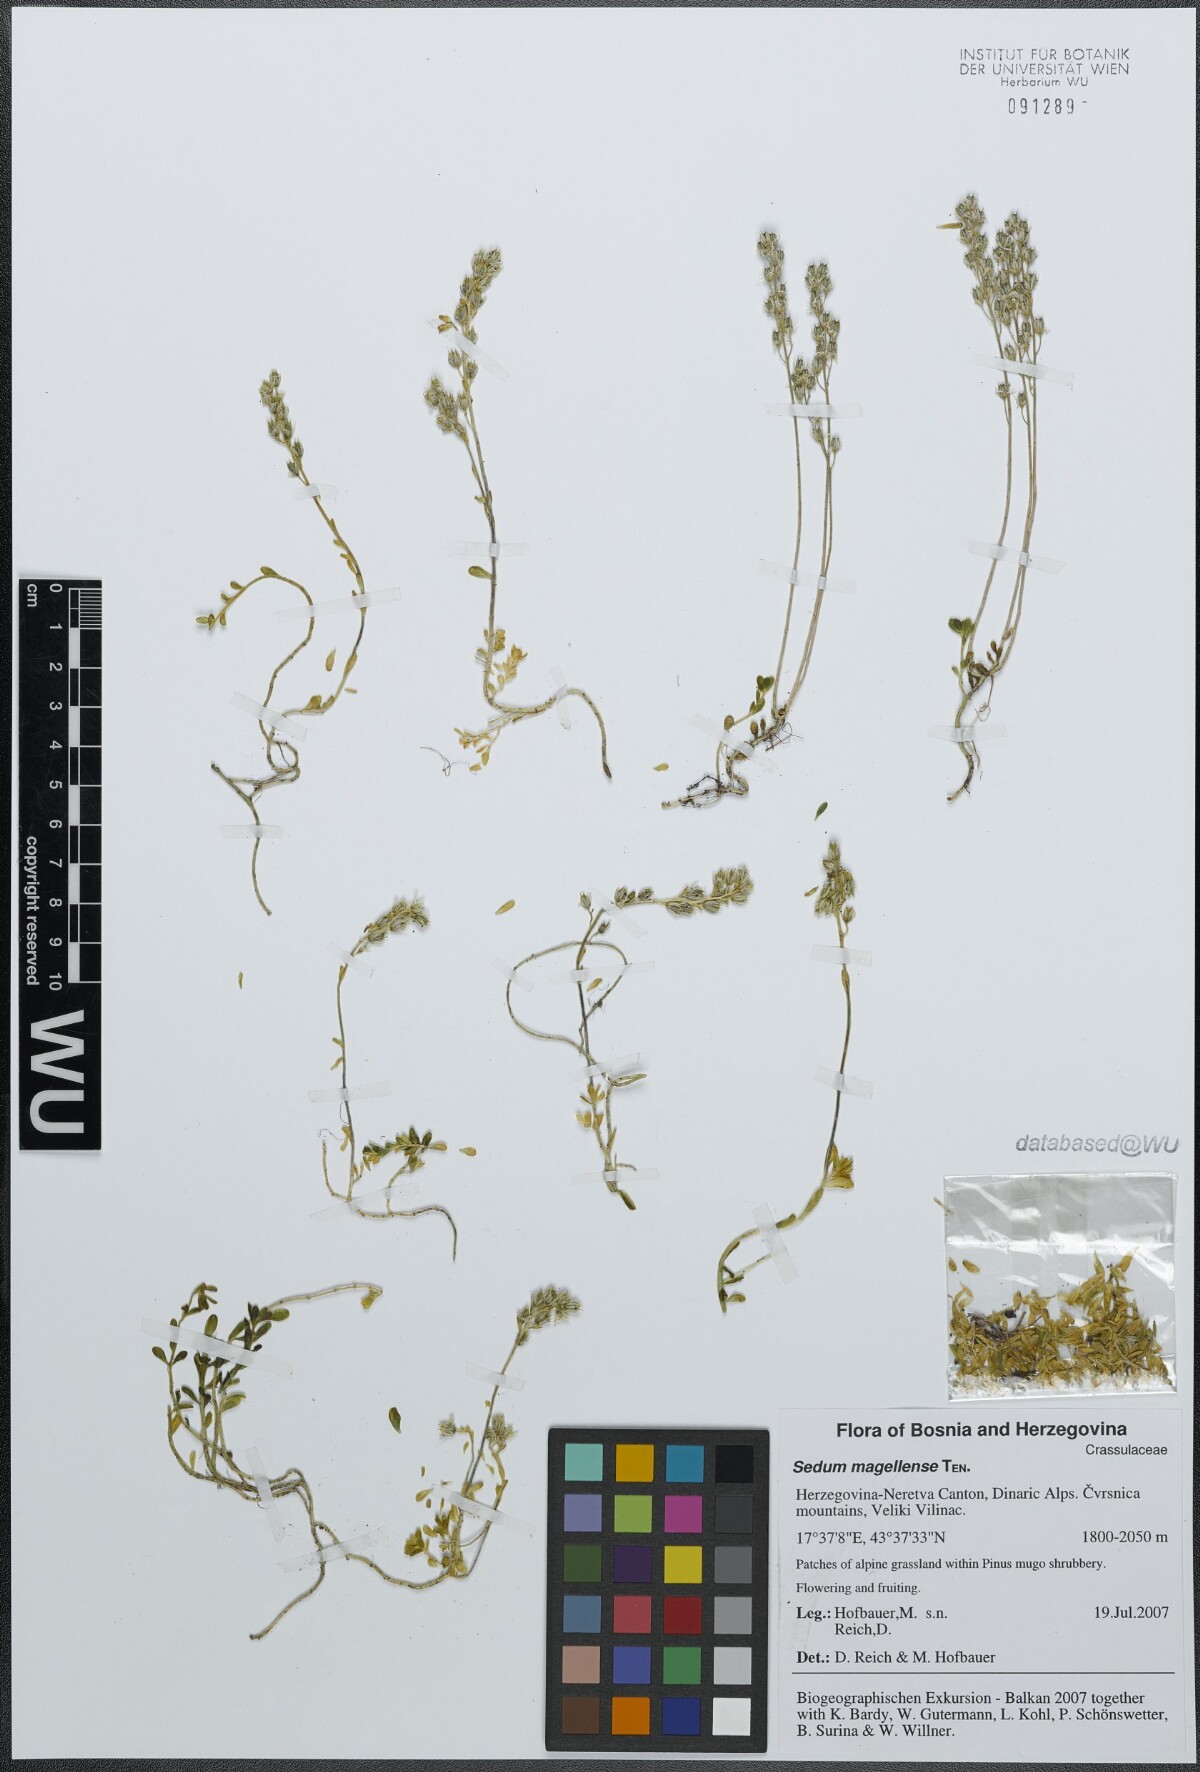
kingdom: Plantae
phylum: Tracheophyta
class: Magnoliopsida
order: Saxifragales
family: Crassulaceae
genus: Sedum
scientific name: Sedum magellense
